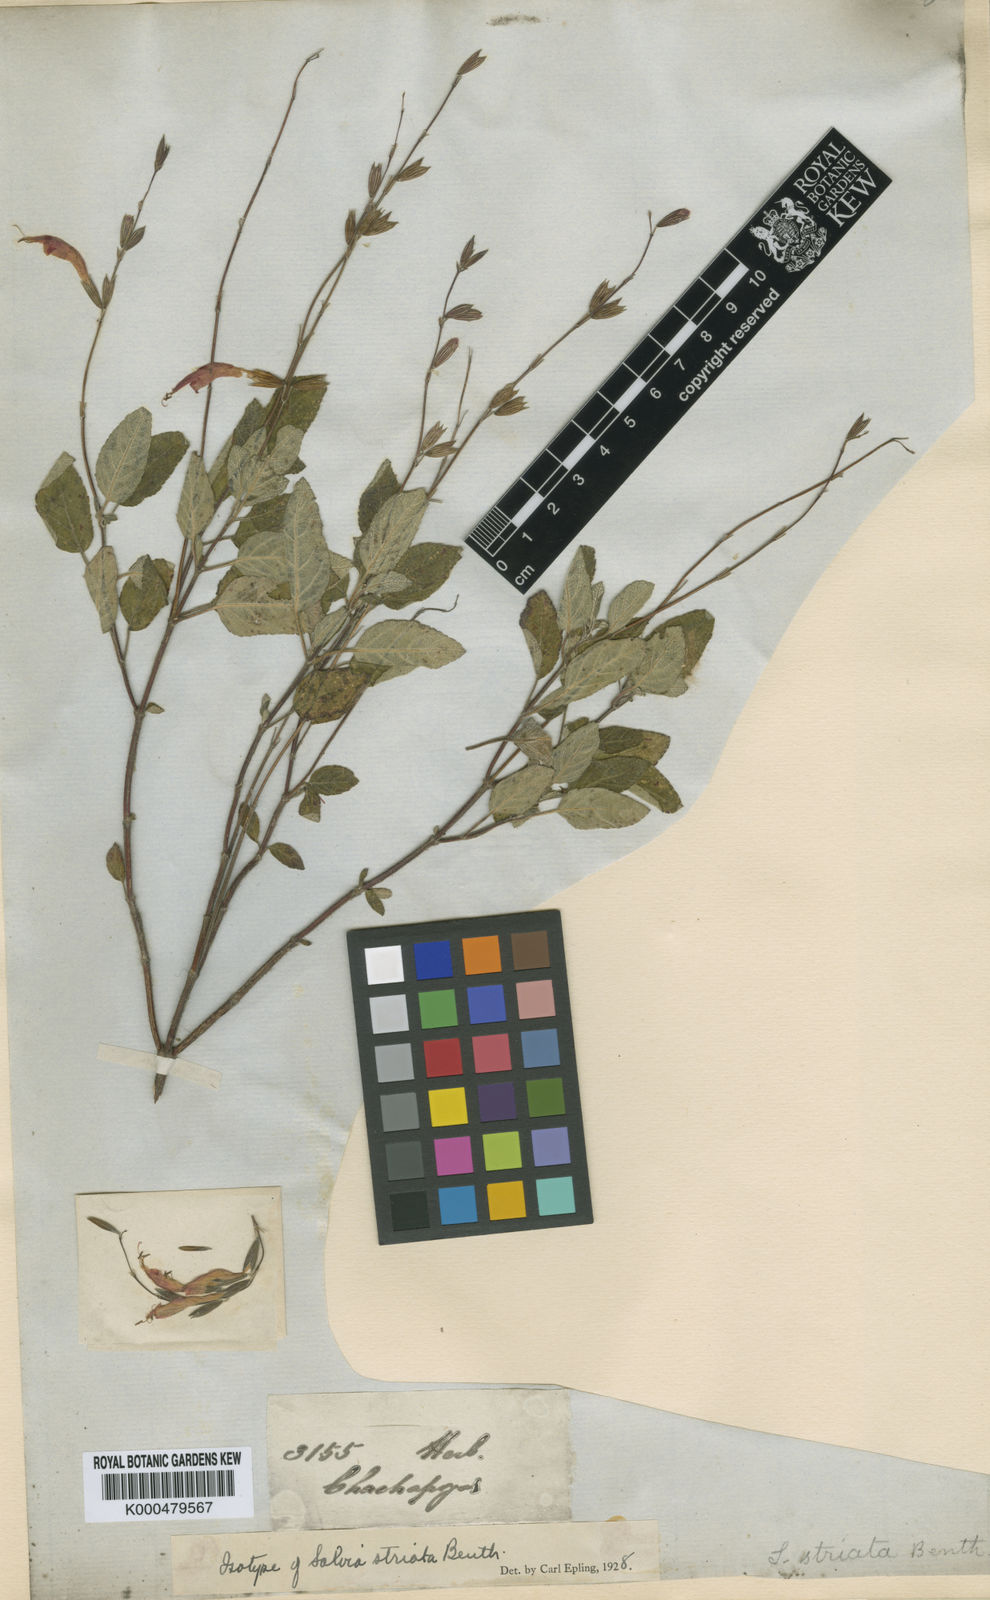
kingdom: Plantae
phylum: Tracheophyta
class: Magnoliopsida
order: Lamiales
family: Lamiaceae
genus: Salvia
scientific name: Salvia striata
